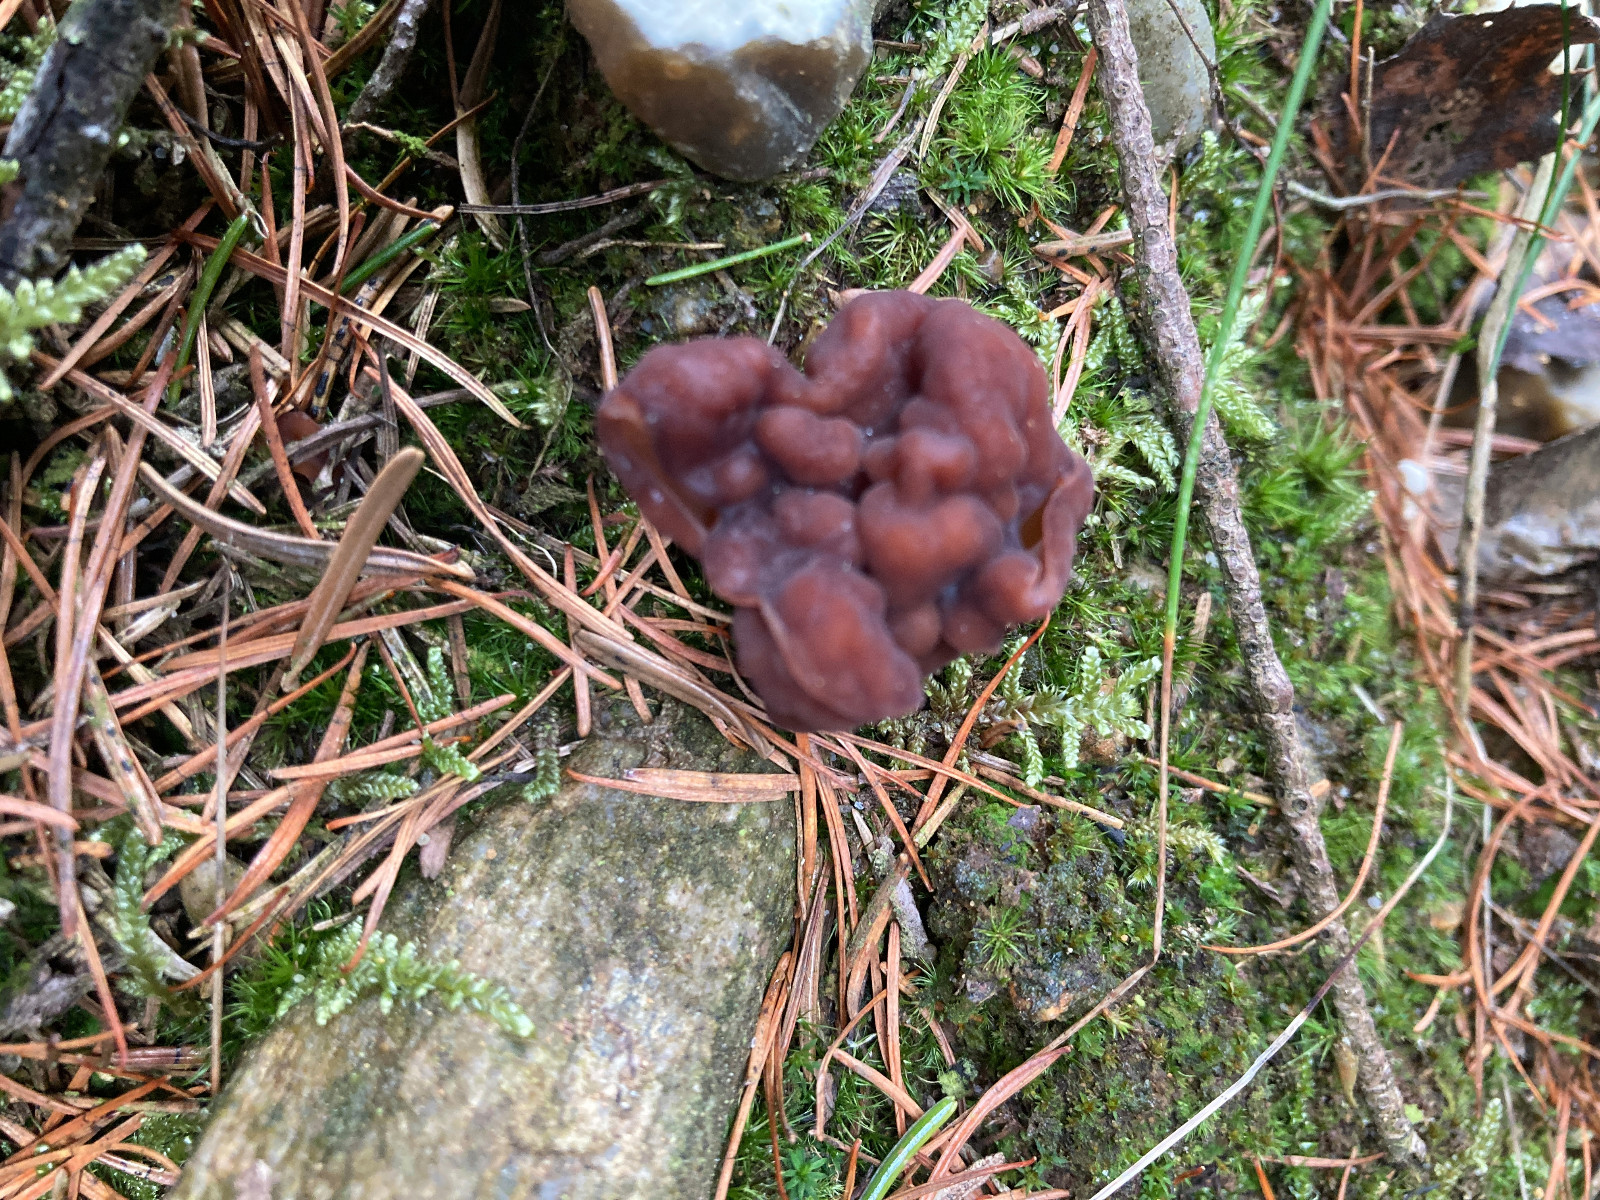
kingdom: Fungi
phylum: Ascomycota
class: Pezizomycetes
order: Pezizales
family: Discinaceae
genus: Gyromitra
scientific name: Gyromitra esculenta
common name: ægte stenmorkel
